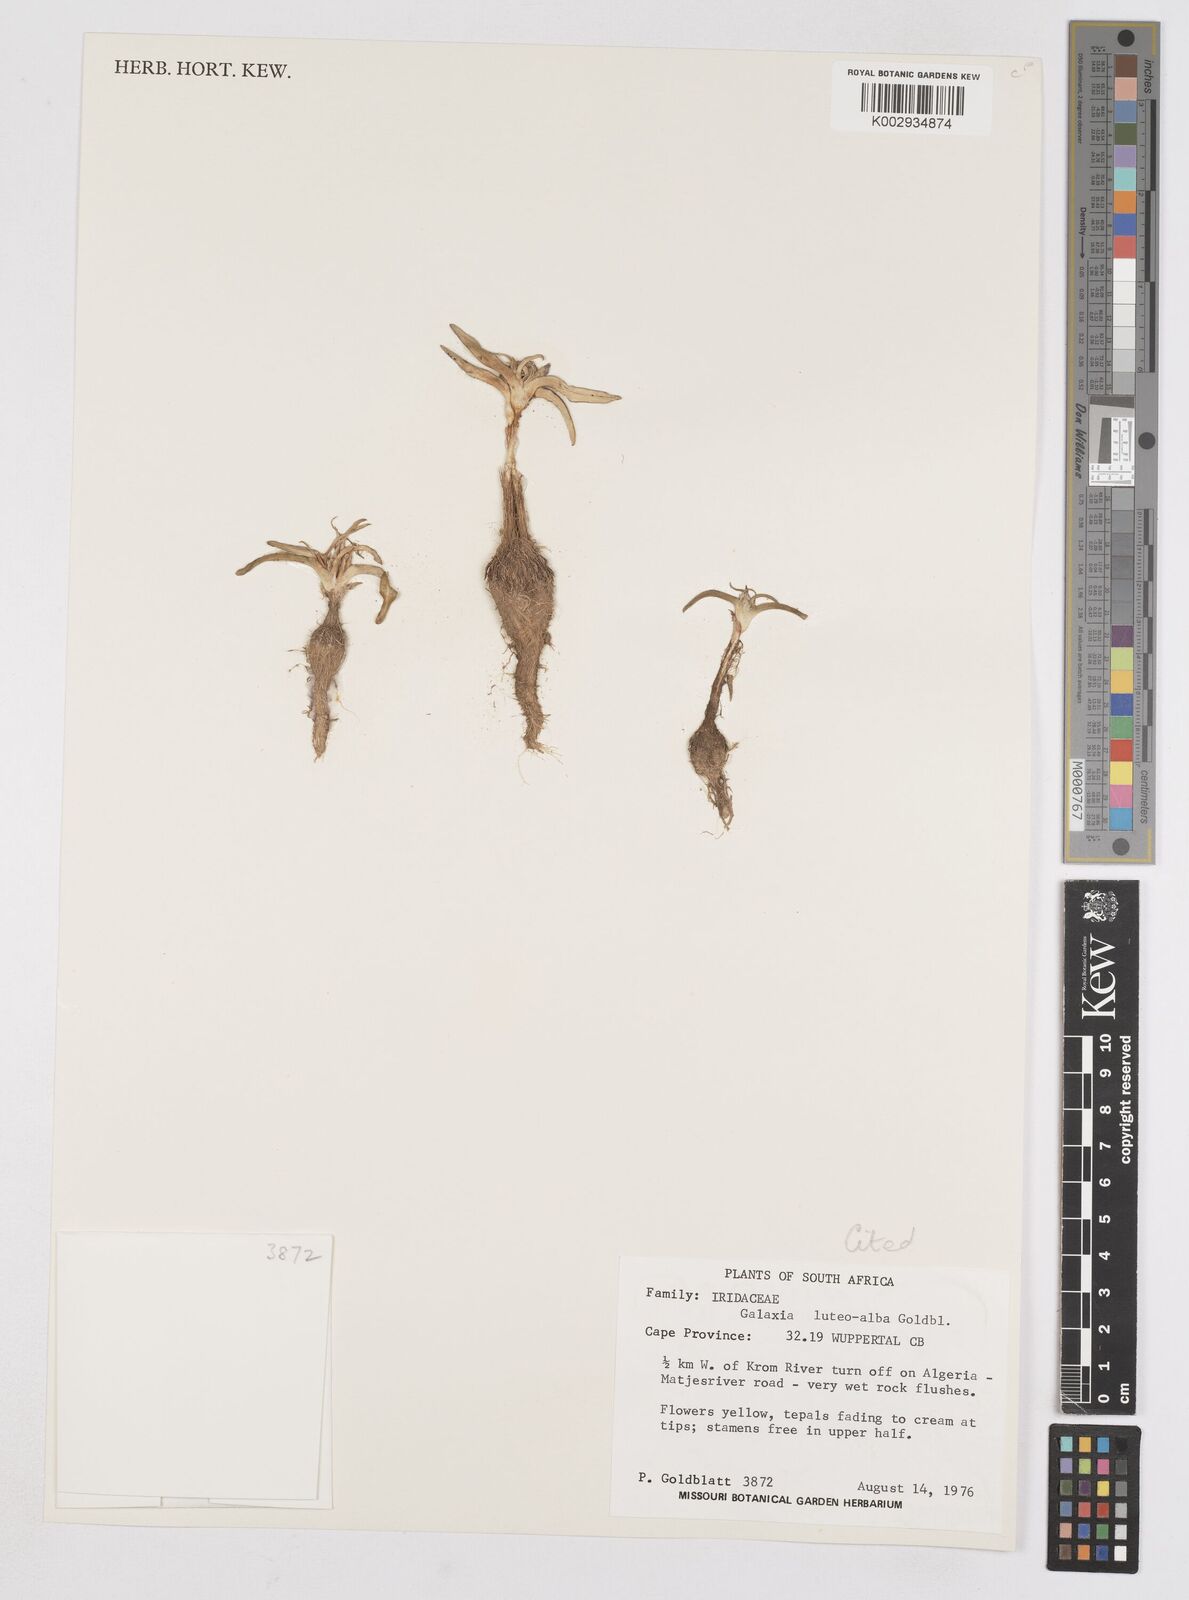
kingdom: Plantae
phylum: Tracheophyta
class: Liliopsida
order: Asparagales
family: Iridaceae
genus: Moraea
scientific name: Moraea luteoalba
